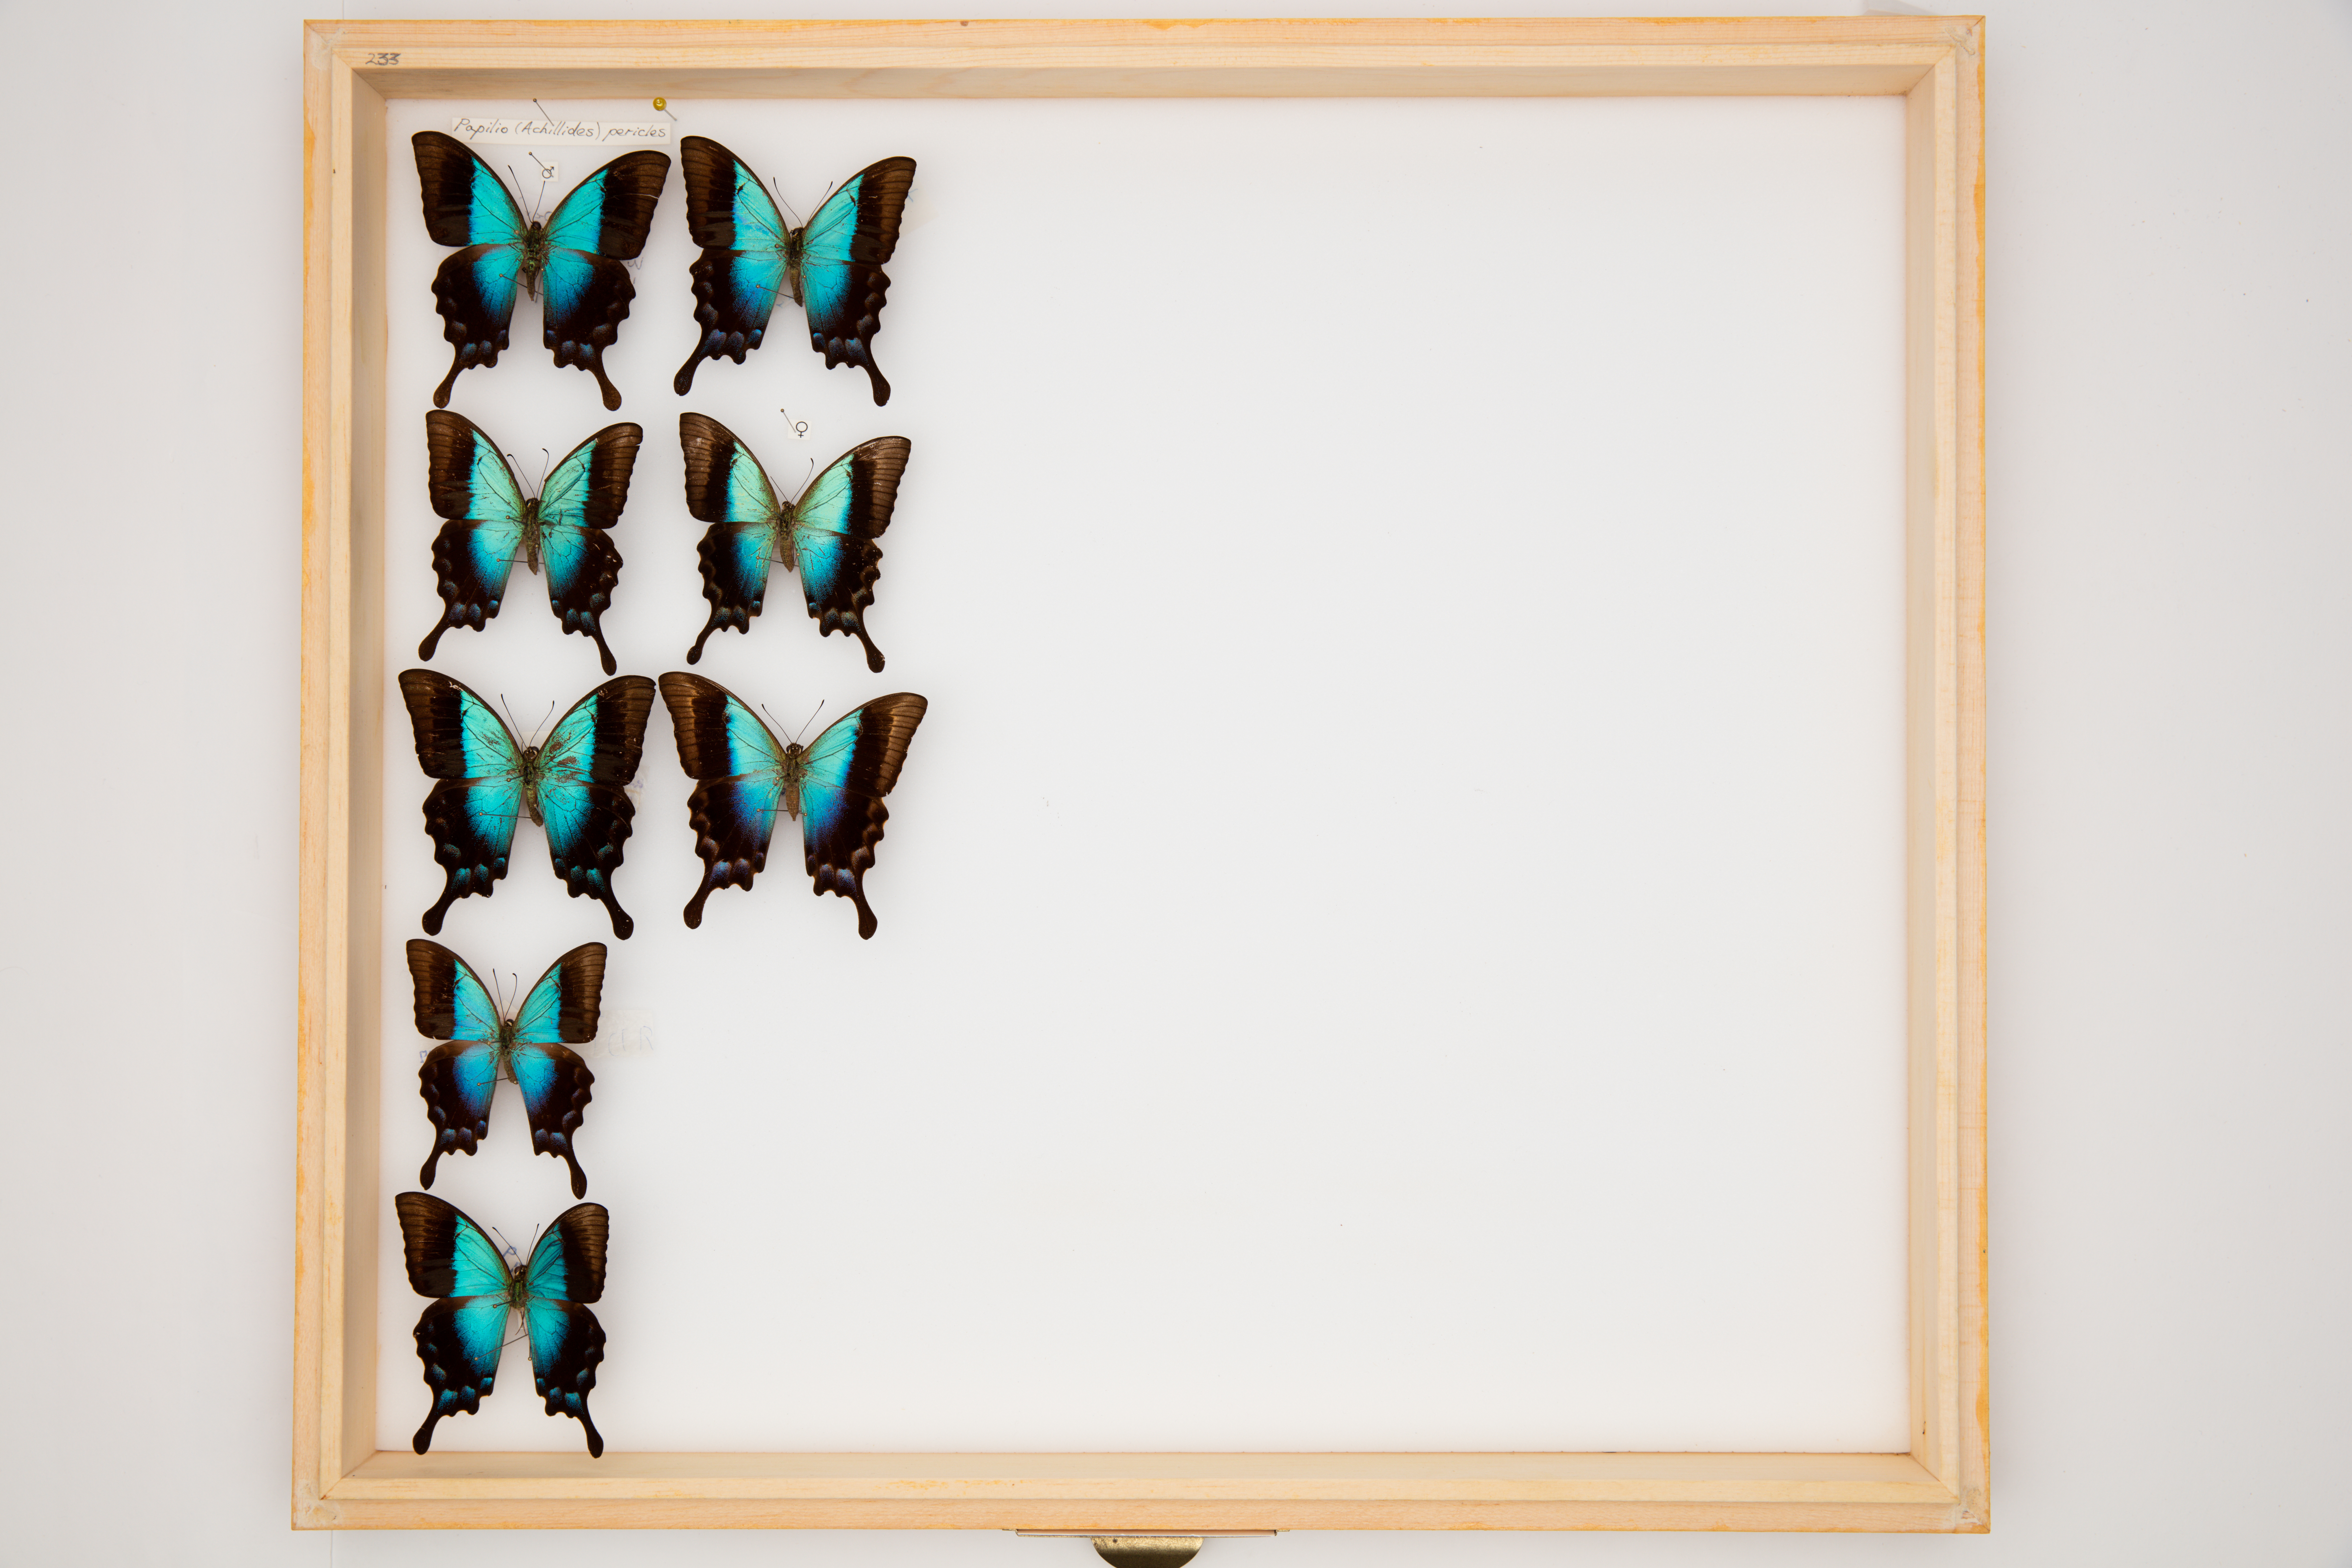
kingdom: Animalia
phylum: Arthropoda
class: Insecta
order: Lepidoptera
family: Papilionidae
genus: Papilio
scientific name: Papilio pericles
